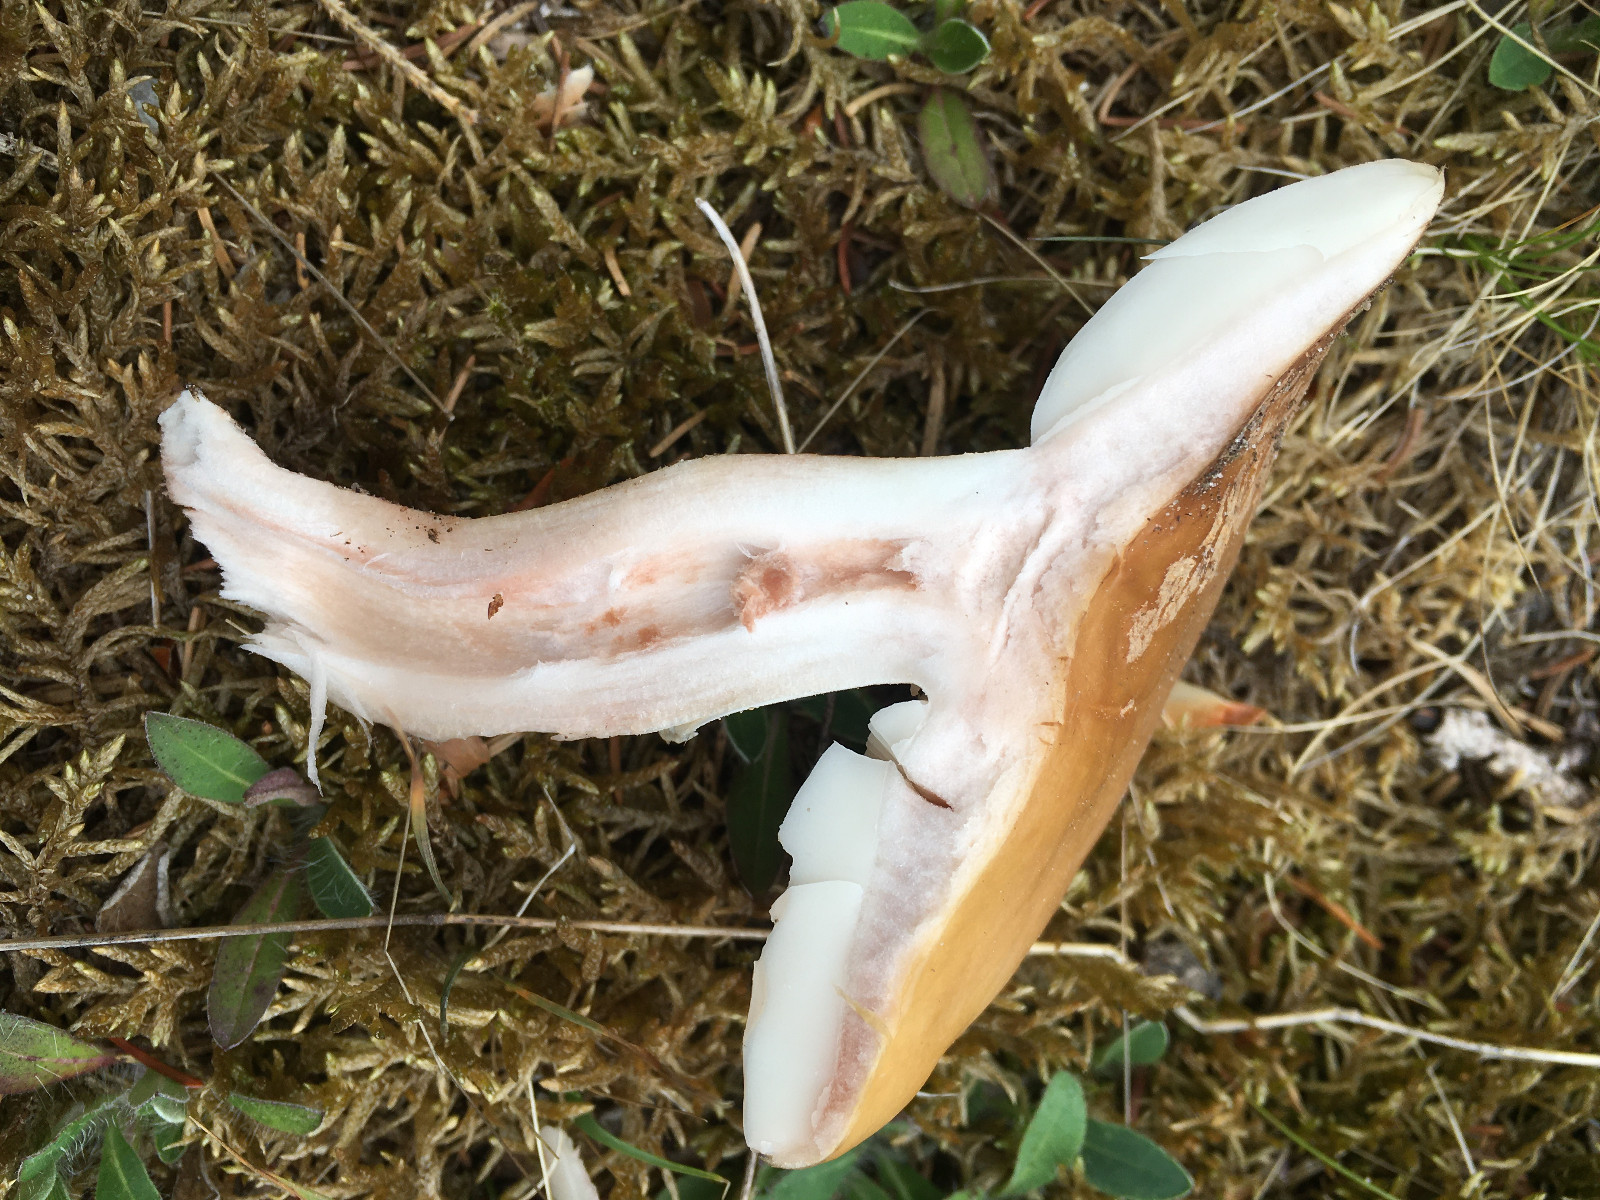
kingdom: Fungi
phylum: Basidiomycota
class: Agaricomycetes
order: Agaricales
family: Amanitaceae
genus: Amanita
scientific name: Amanita rubescens
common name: rødmende fluesvamp
